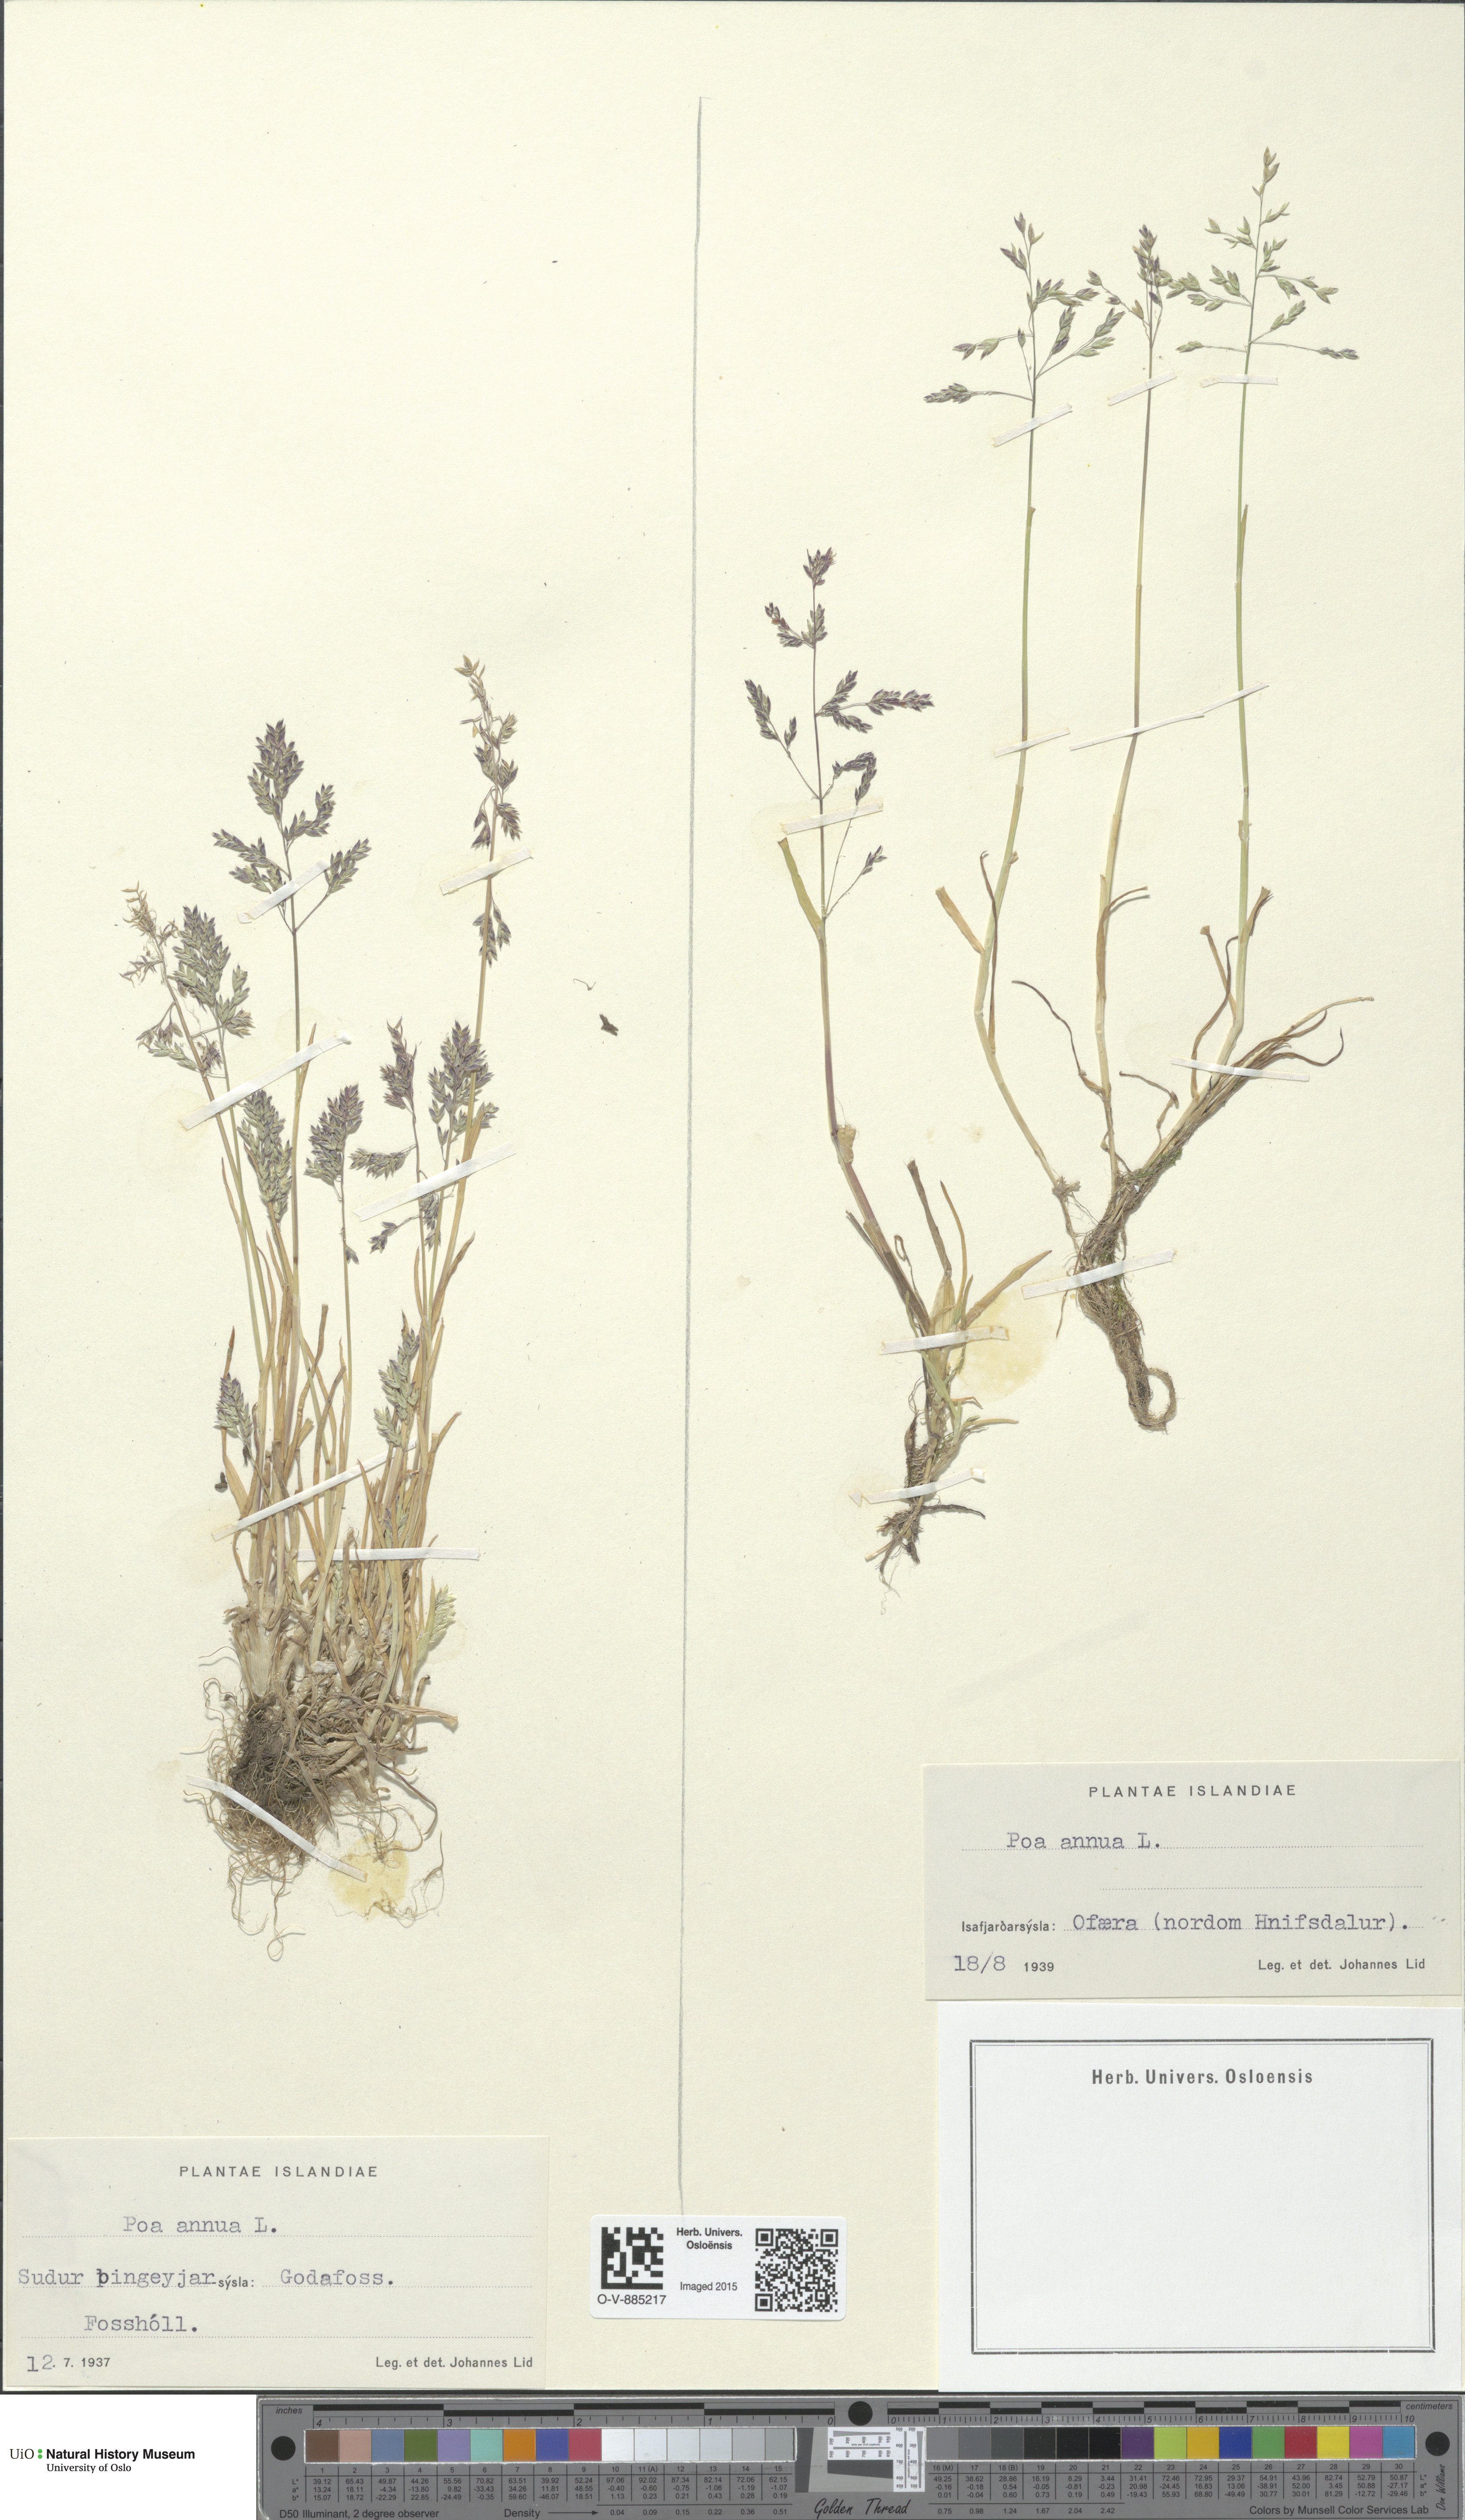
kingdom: Plantae
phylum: Tracheophyta
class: Liliopsida
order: Poales
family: Poaceae
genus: Poa
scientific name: Poa annua
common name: Annual bluegrass
